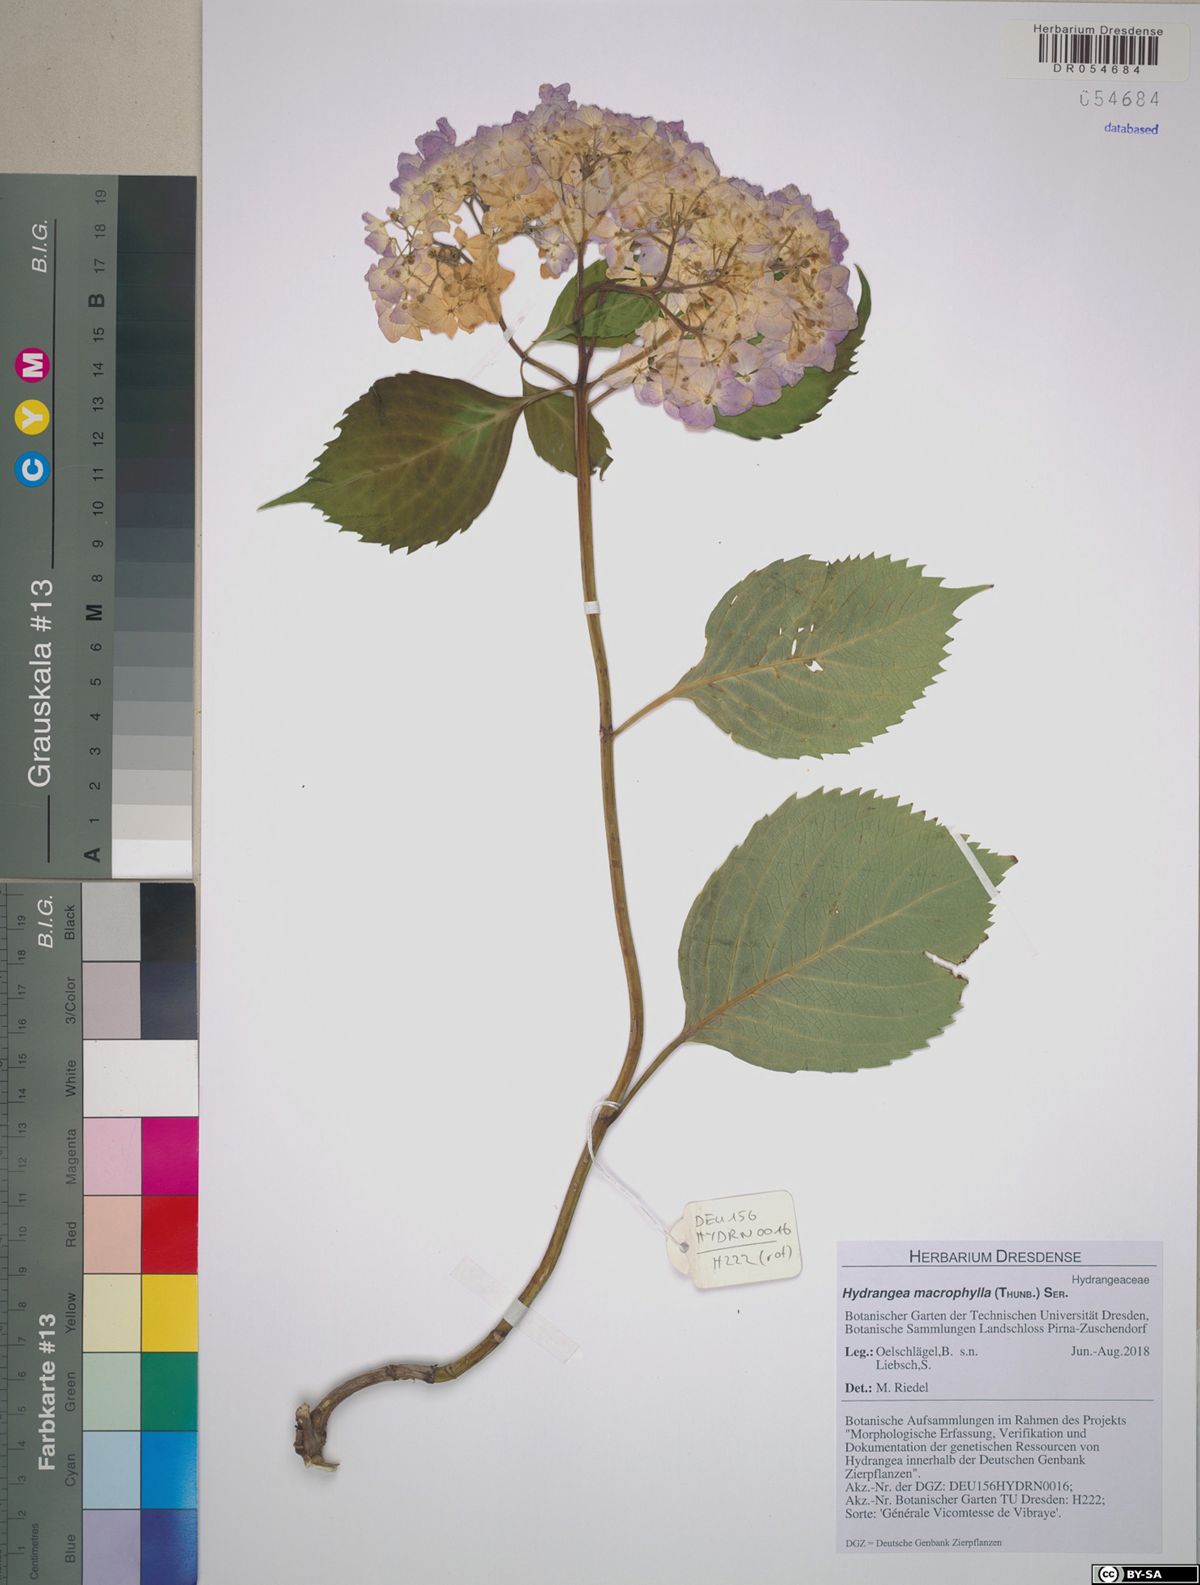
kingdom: Plantae
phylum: Tracheophyta
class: Magnoliopsida
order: Cornales
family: Hydrangeaceae
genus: Hydrangea
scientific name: Hydrangea macrophylla
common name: Hydrangea
